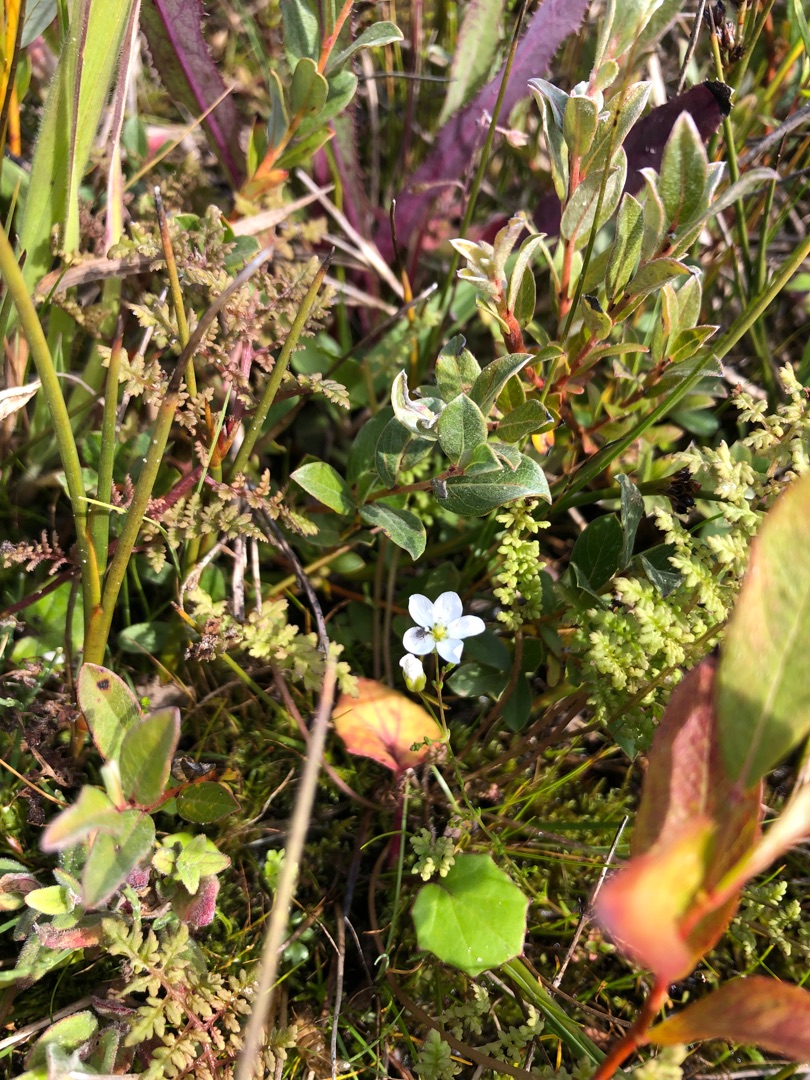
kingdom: Plantae
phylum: Tracheophyta
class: Magnoliopsida
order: Caryophyllales
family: Caryophyllaceae
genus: Sagina
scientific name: Sagina nodosa
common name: Knude-firling
